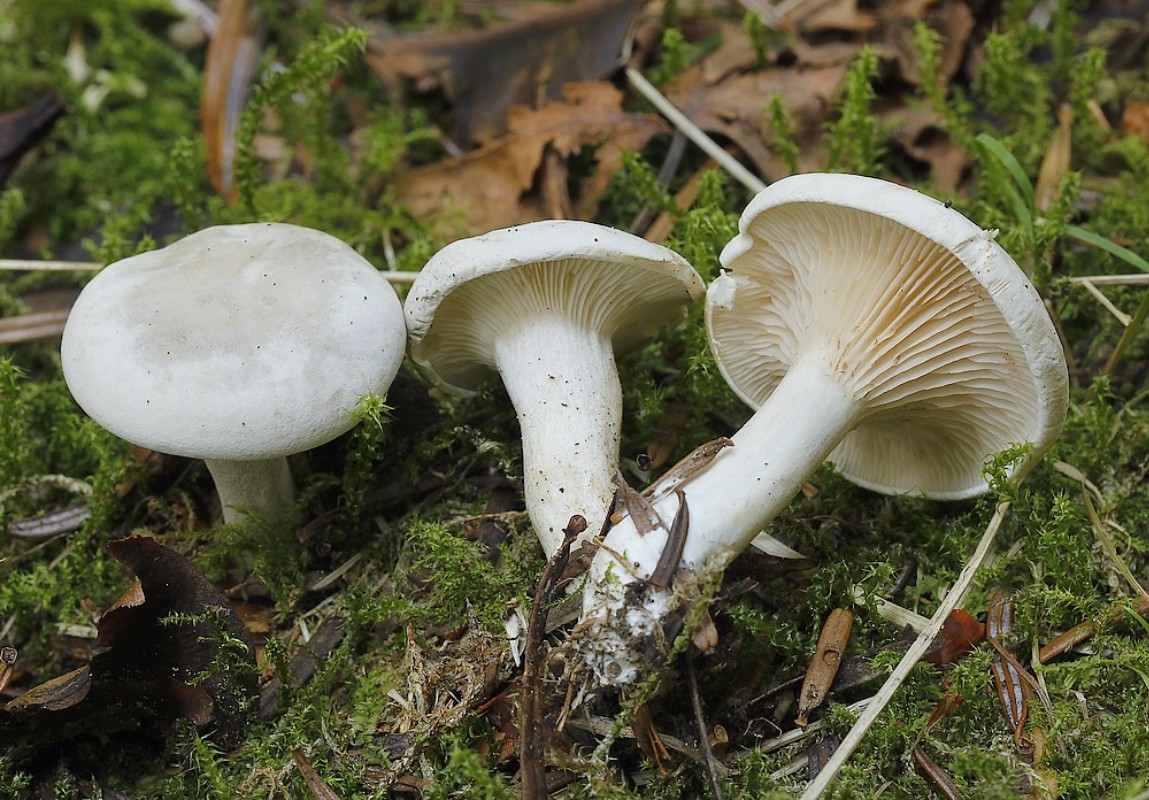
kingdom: Fungi
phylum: Basidiomycota
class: Agaricomycetes
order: Agaricales
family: Entolomataceae
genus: Clitopilus
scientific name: Clitopilus prunulus
